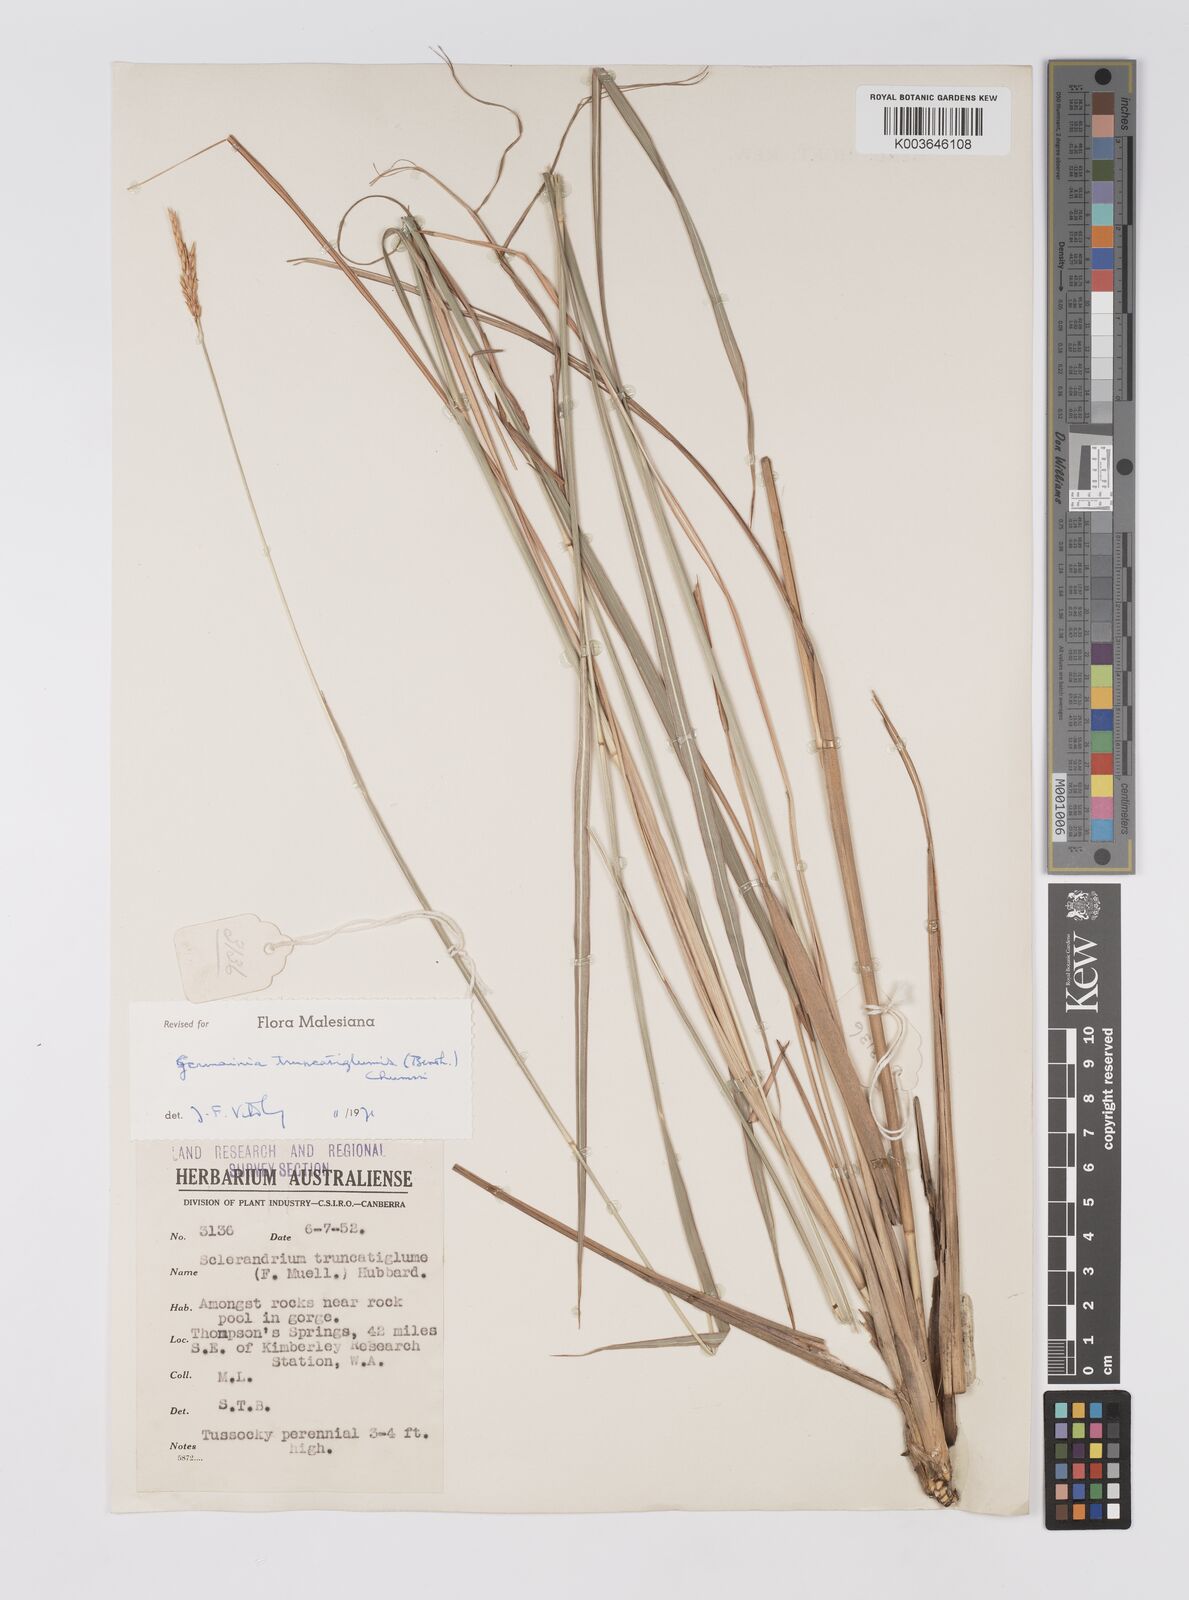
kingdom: Plantae
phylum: Tracheophyta
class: Liliopsida
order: Poales
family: Poaceae
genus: Germainia
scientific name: Germainia truncatiglumis
